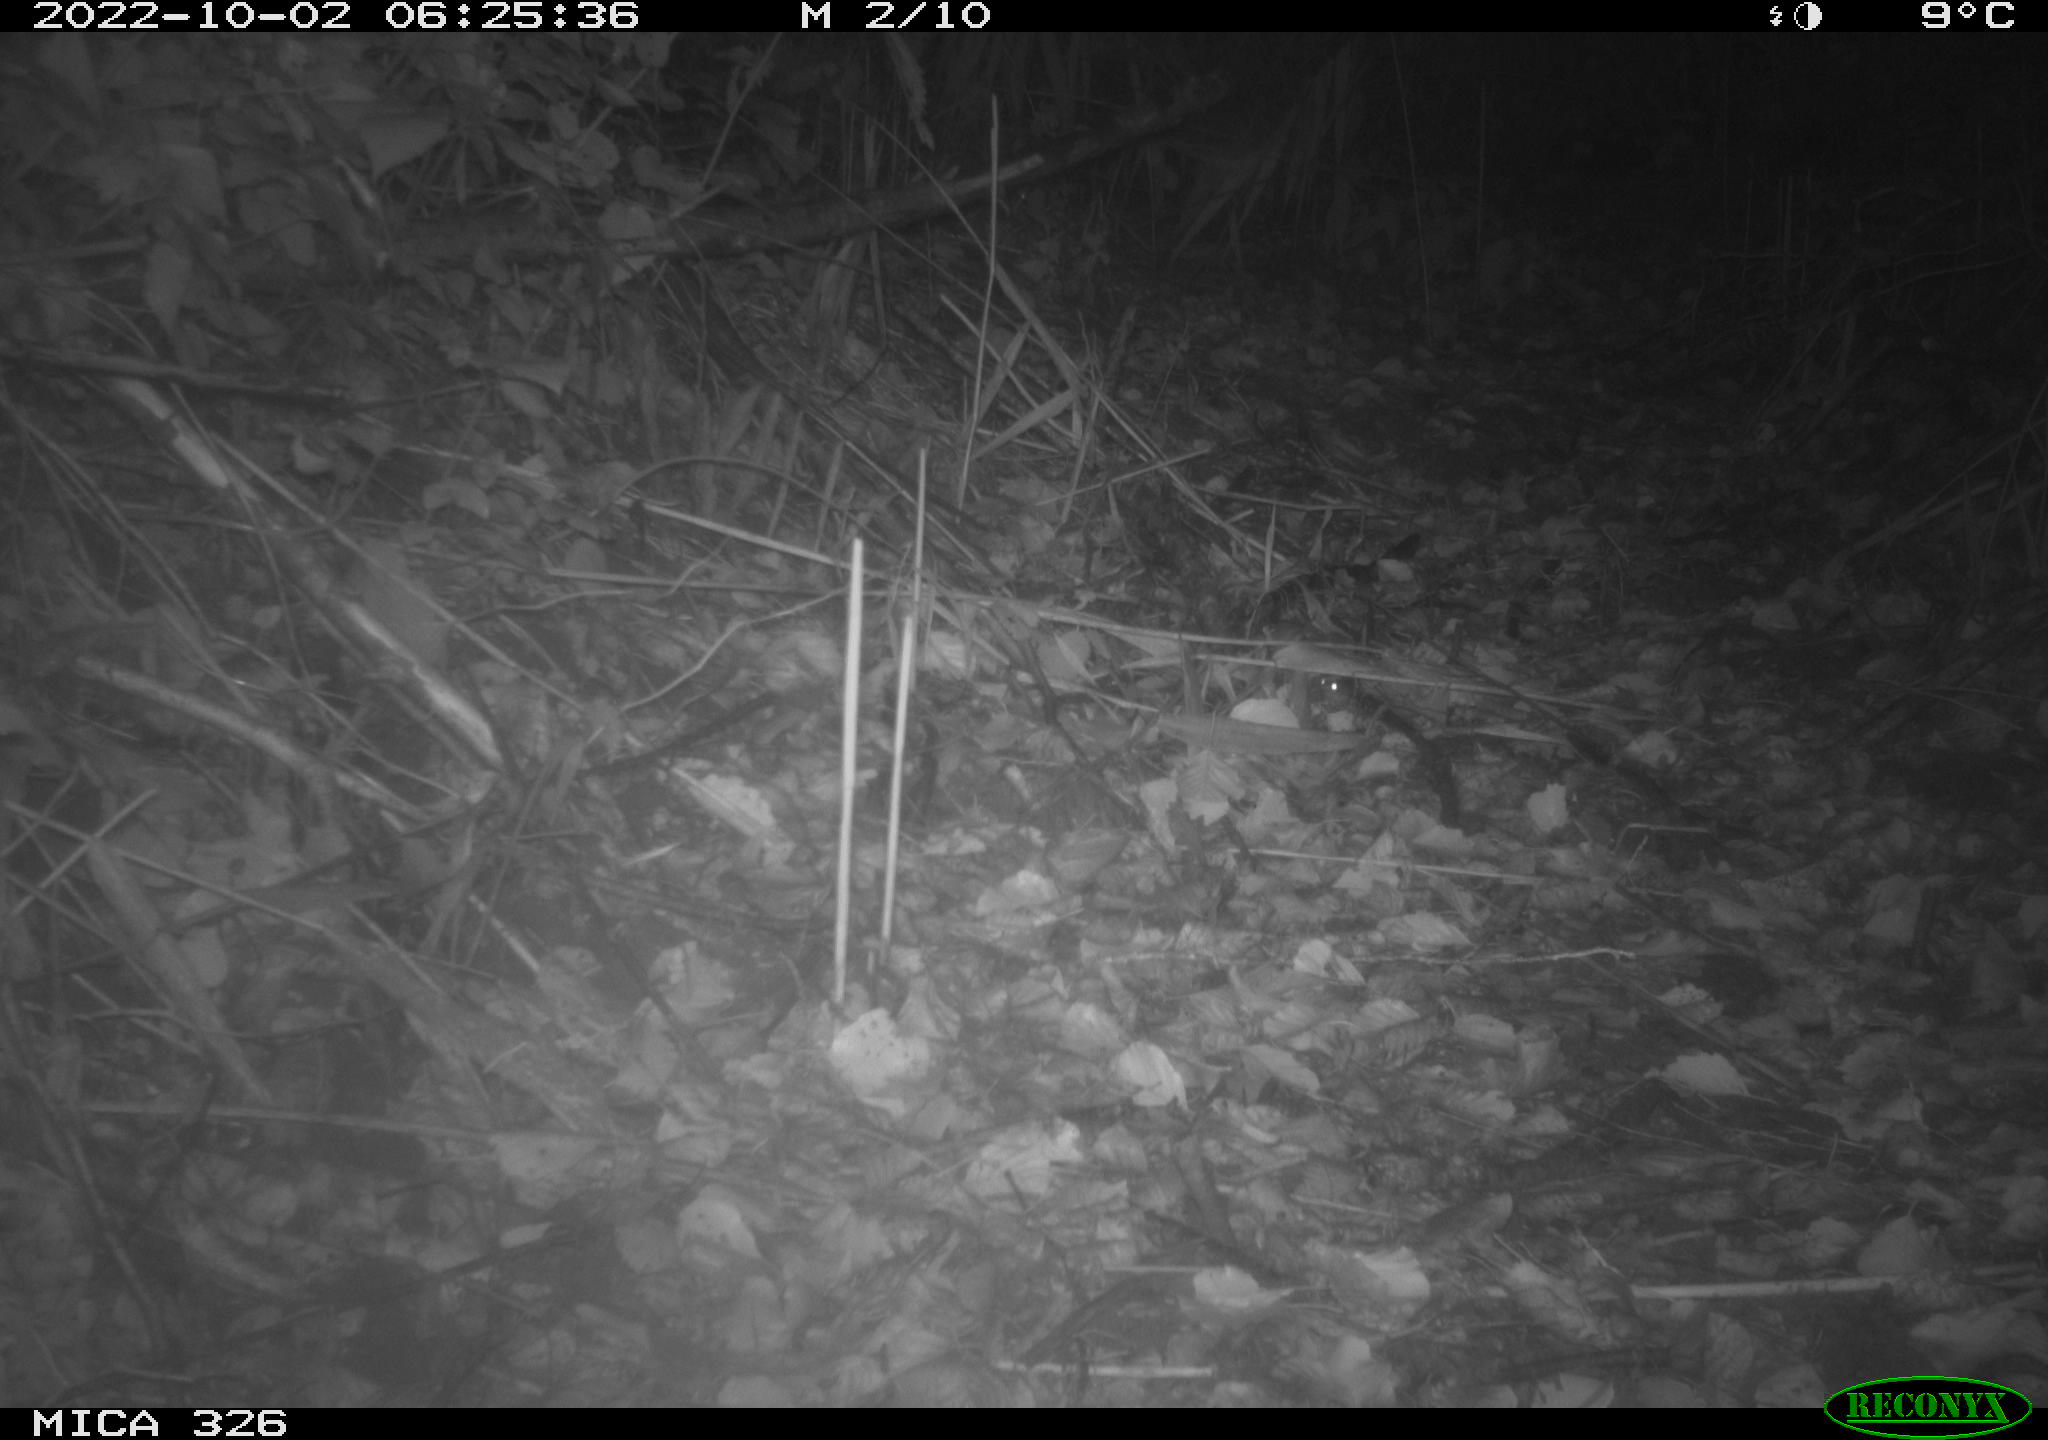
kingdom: Animalia
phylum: Chordata
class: Mammalia
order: Rodentia
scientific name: Rodentia
